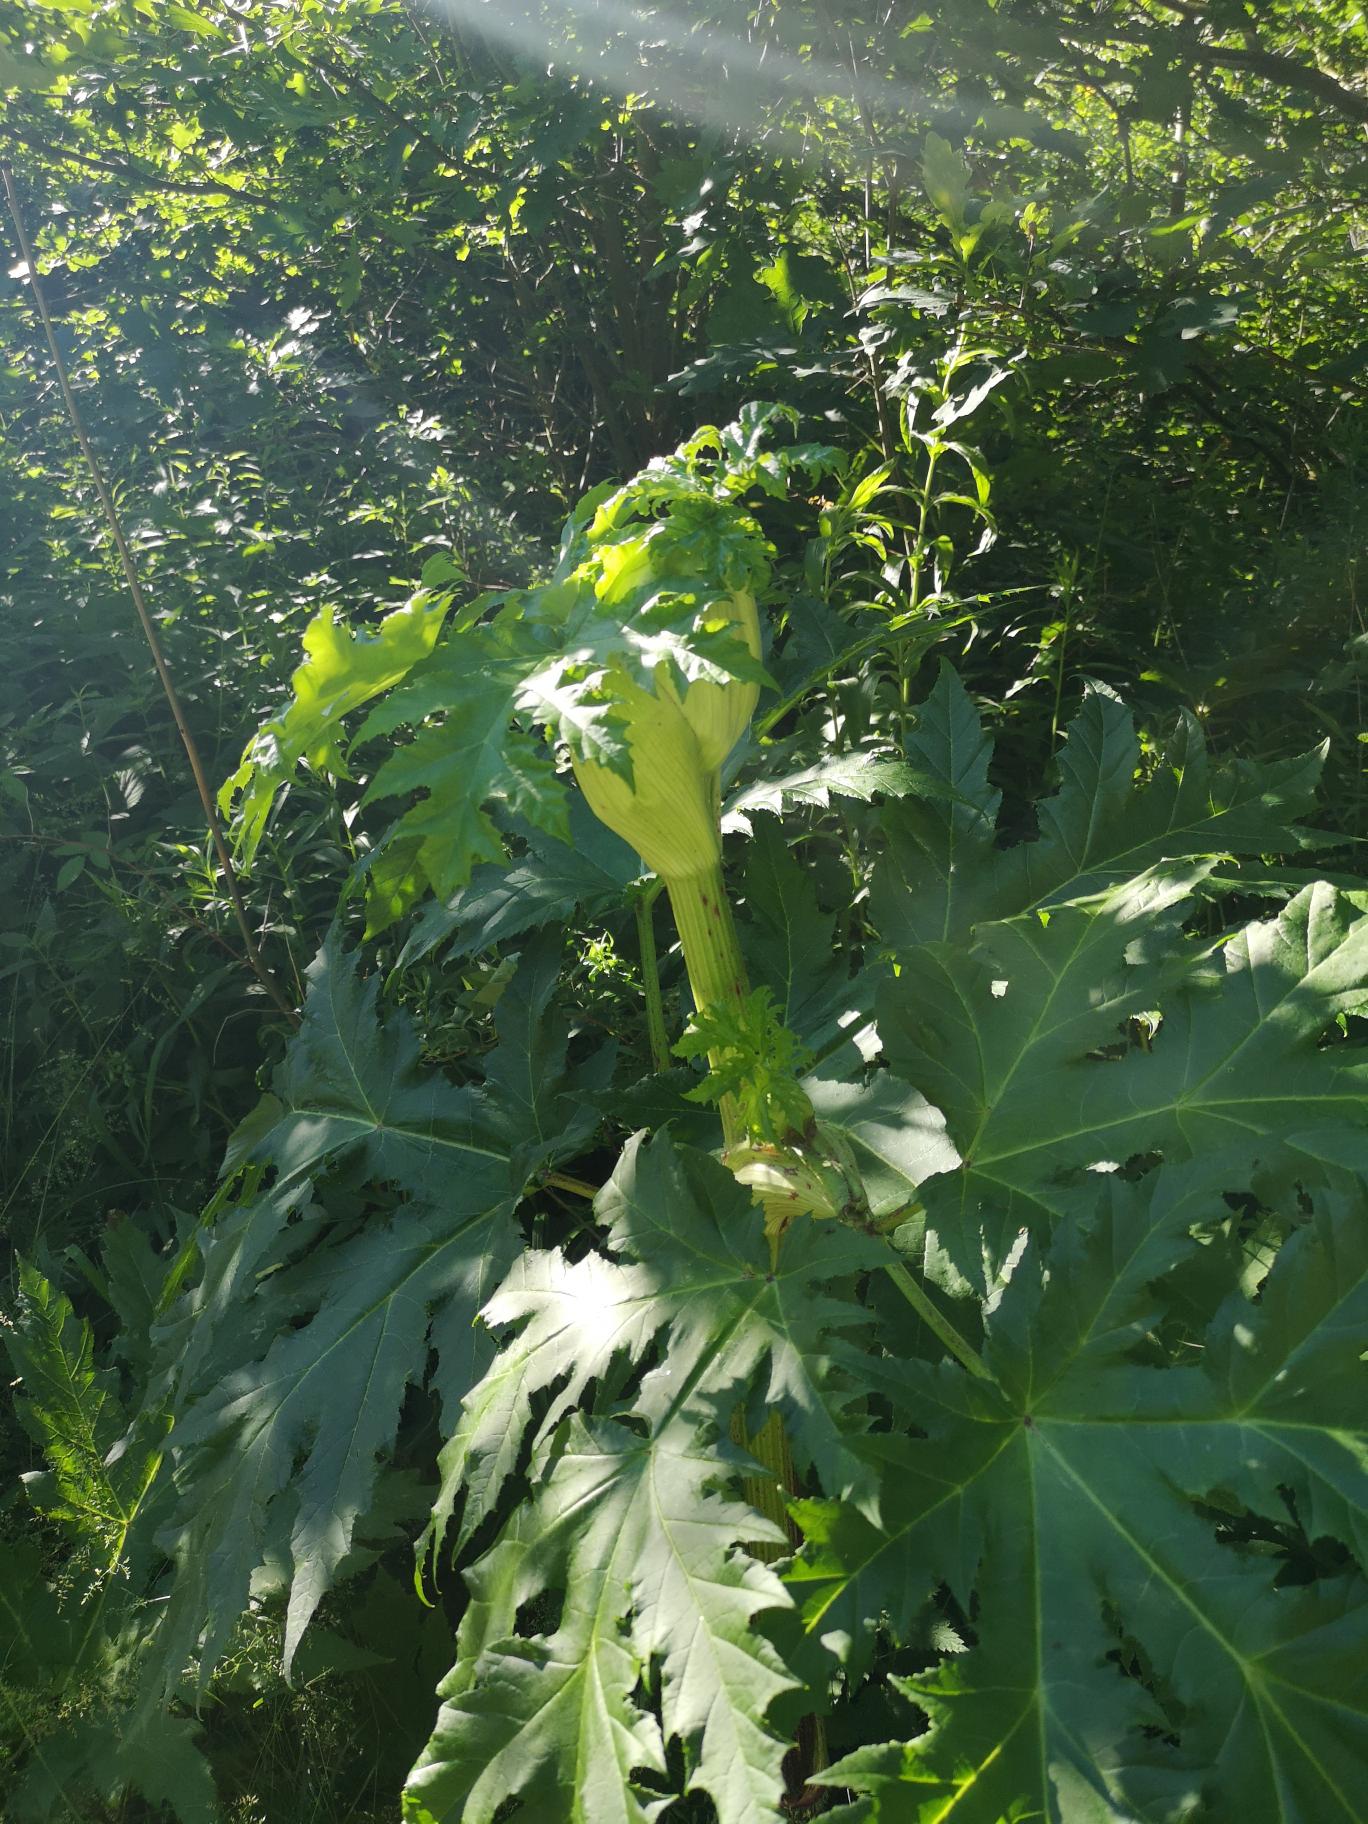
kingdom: Plantae
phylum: Tracheophyta
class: Magnoliopsida
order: Apiales
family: Apiaceae
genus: Heracleum
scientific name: Heracleum mantegazzianum
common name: Kæmpe-bjørneklo
